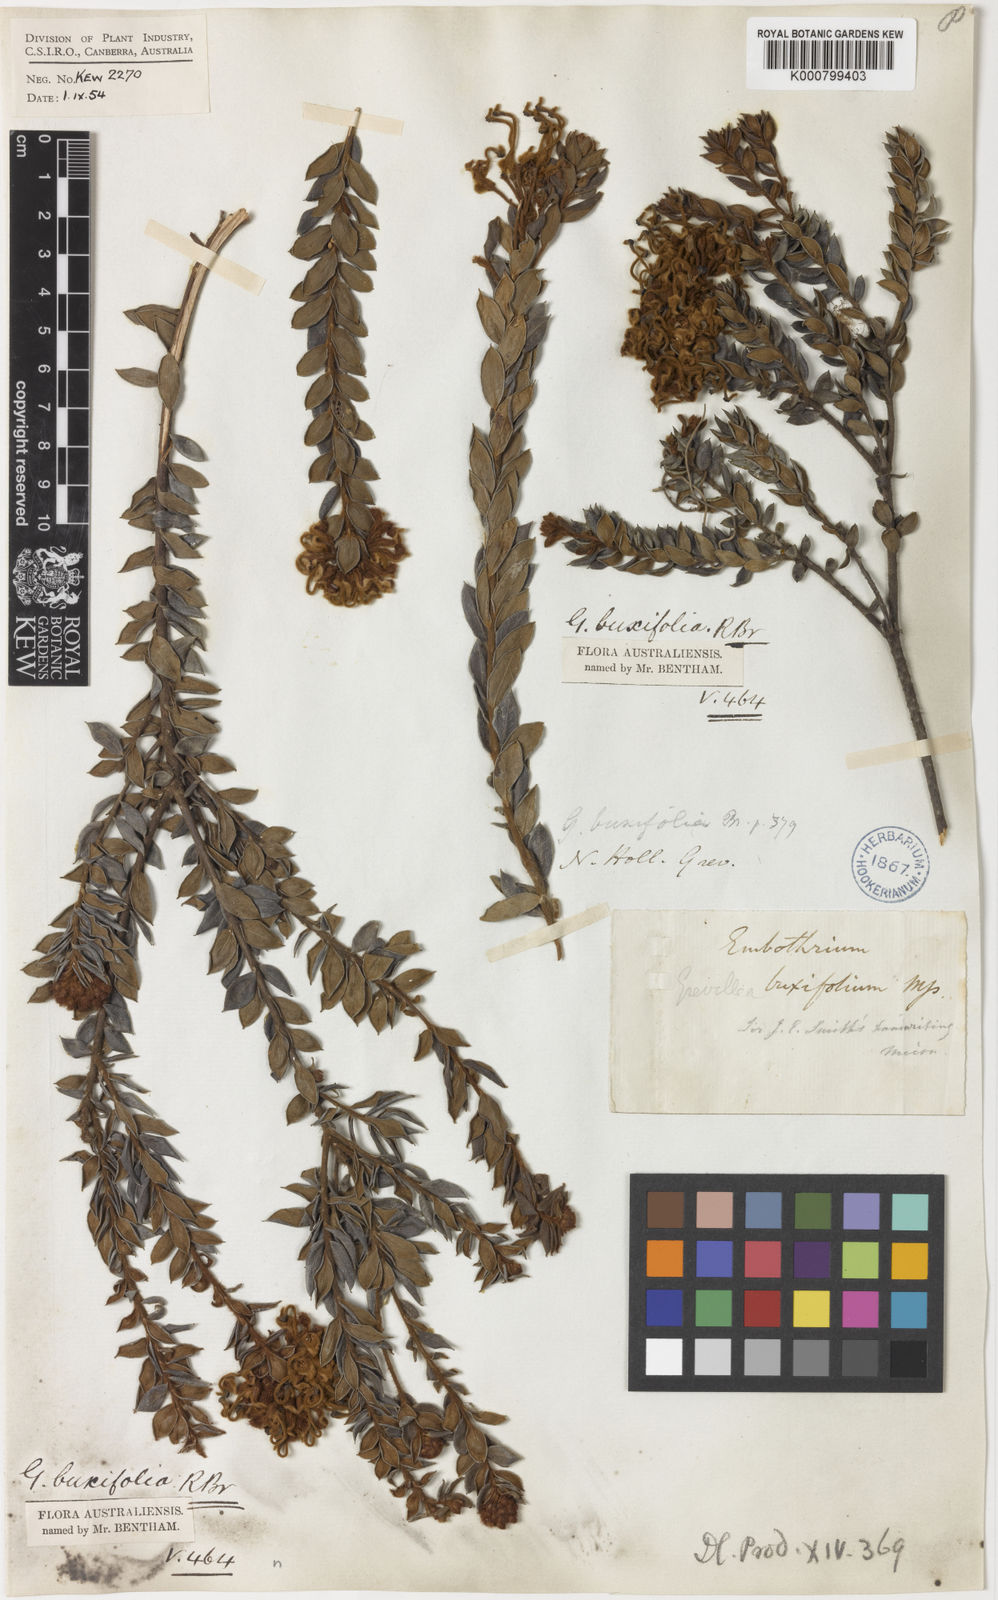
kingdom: Plantae
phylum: Tracheophyta
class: Magnoliopsida
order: Proteales
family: Proteaceae
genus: Grevillea
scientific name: Grevillea buxifolia
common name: Grey spiderflower
